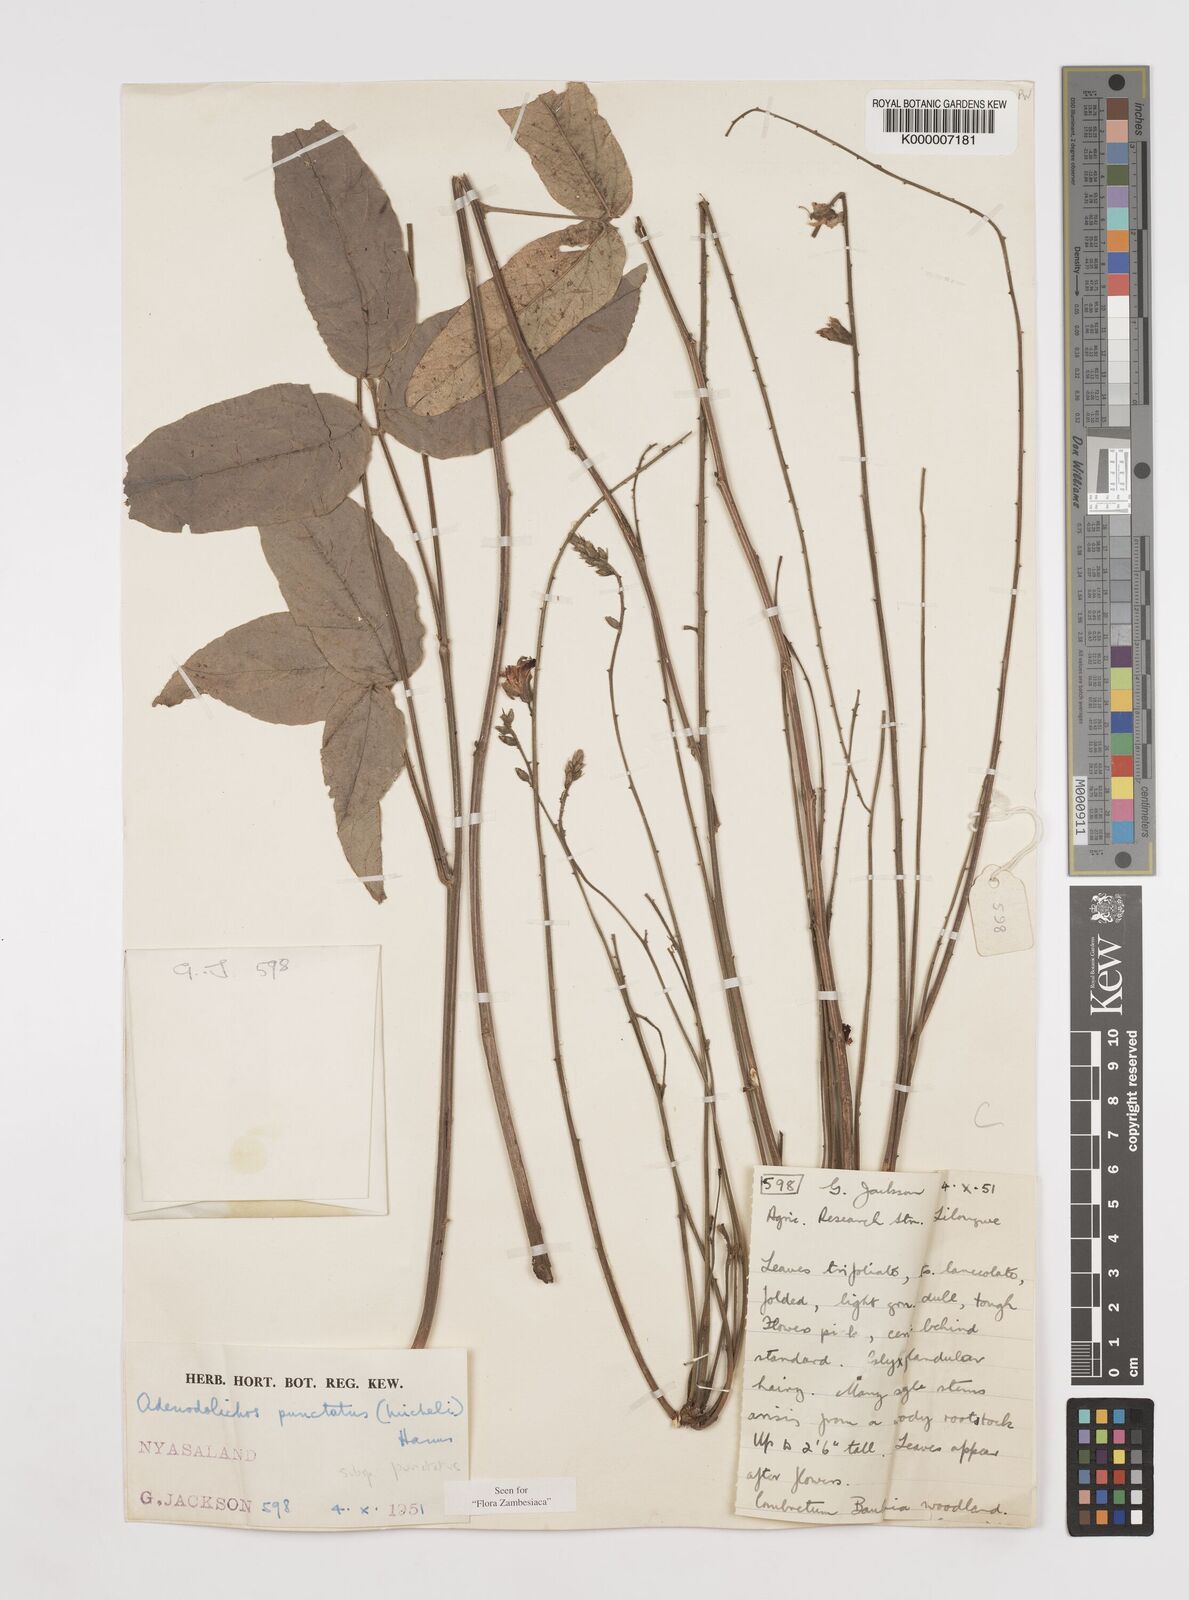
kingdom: Plantae
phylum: Tracheophyta
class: Magnoliopsida
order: Fabales
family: Fabaceae
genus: Adenodolichos
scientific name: Adenodolichos punctatus
